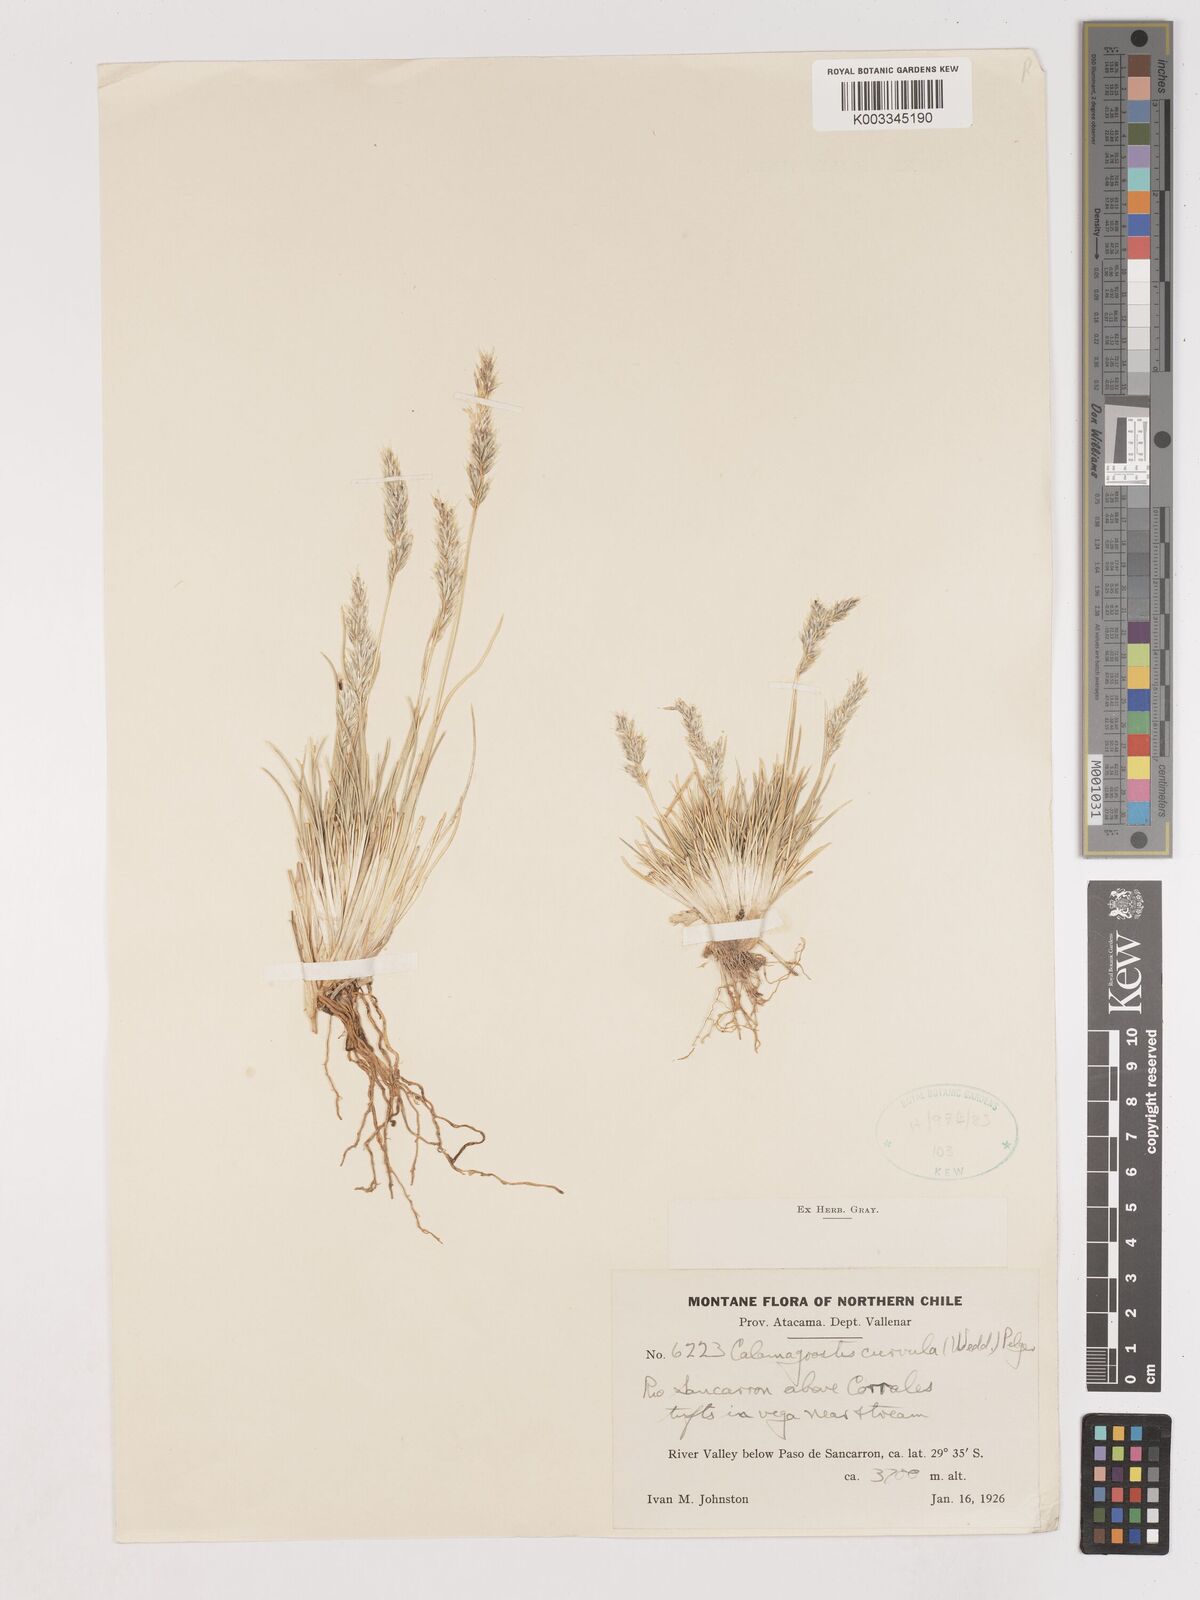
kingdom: Plantae
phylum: Tracheophyta
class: Liliopsida
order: Poales
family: Poaceae
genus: Cinnagrostis
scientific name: Cinnagrostis curvula
